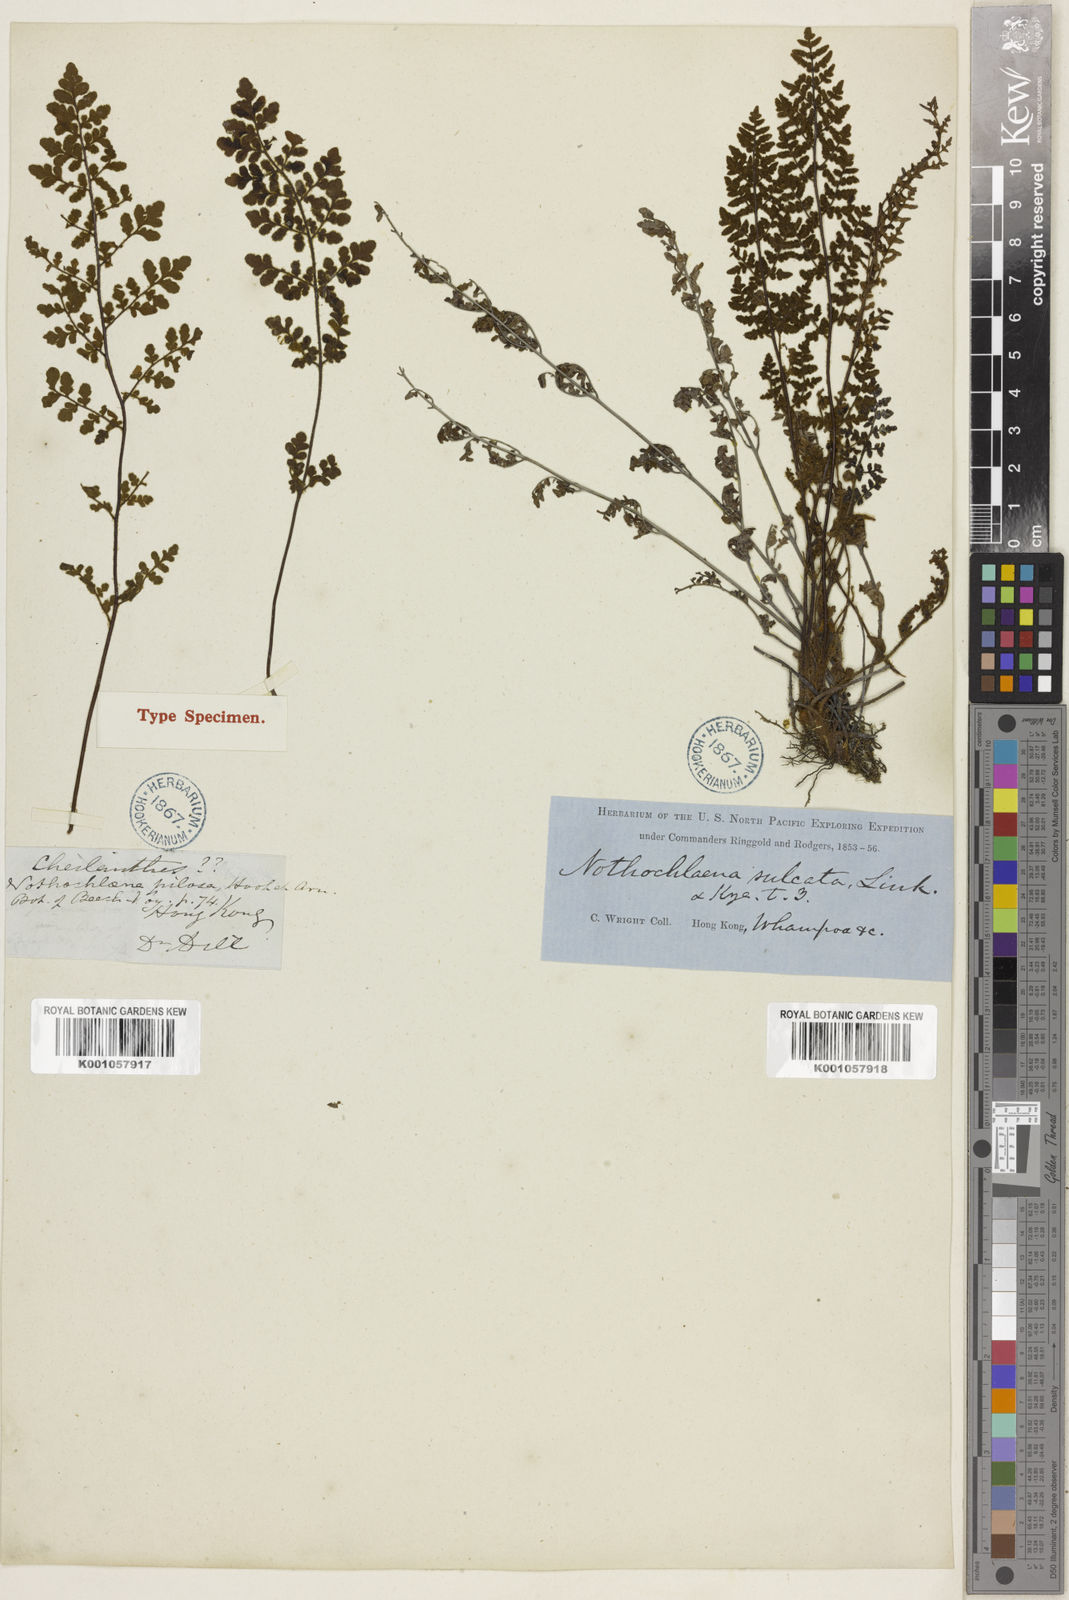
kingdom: Plantae
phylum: Tracheophyta
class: Polypodiopsida
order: Polypodiales
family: Pteridaceae
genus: Cheilanthes
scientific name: Cheilanthes
